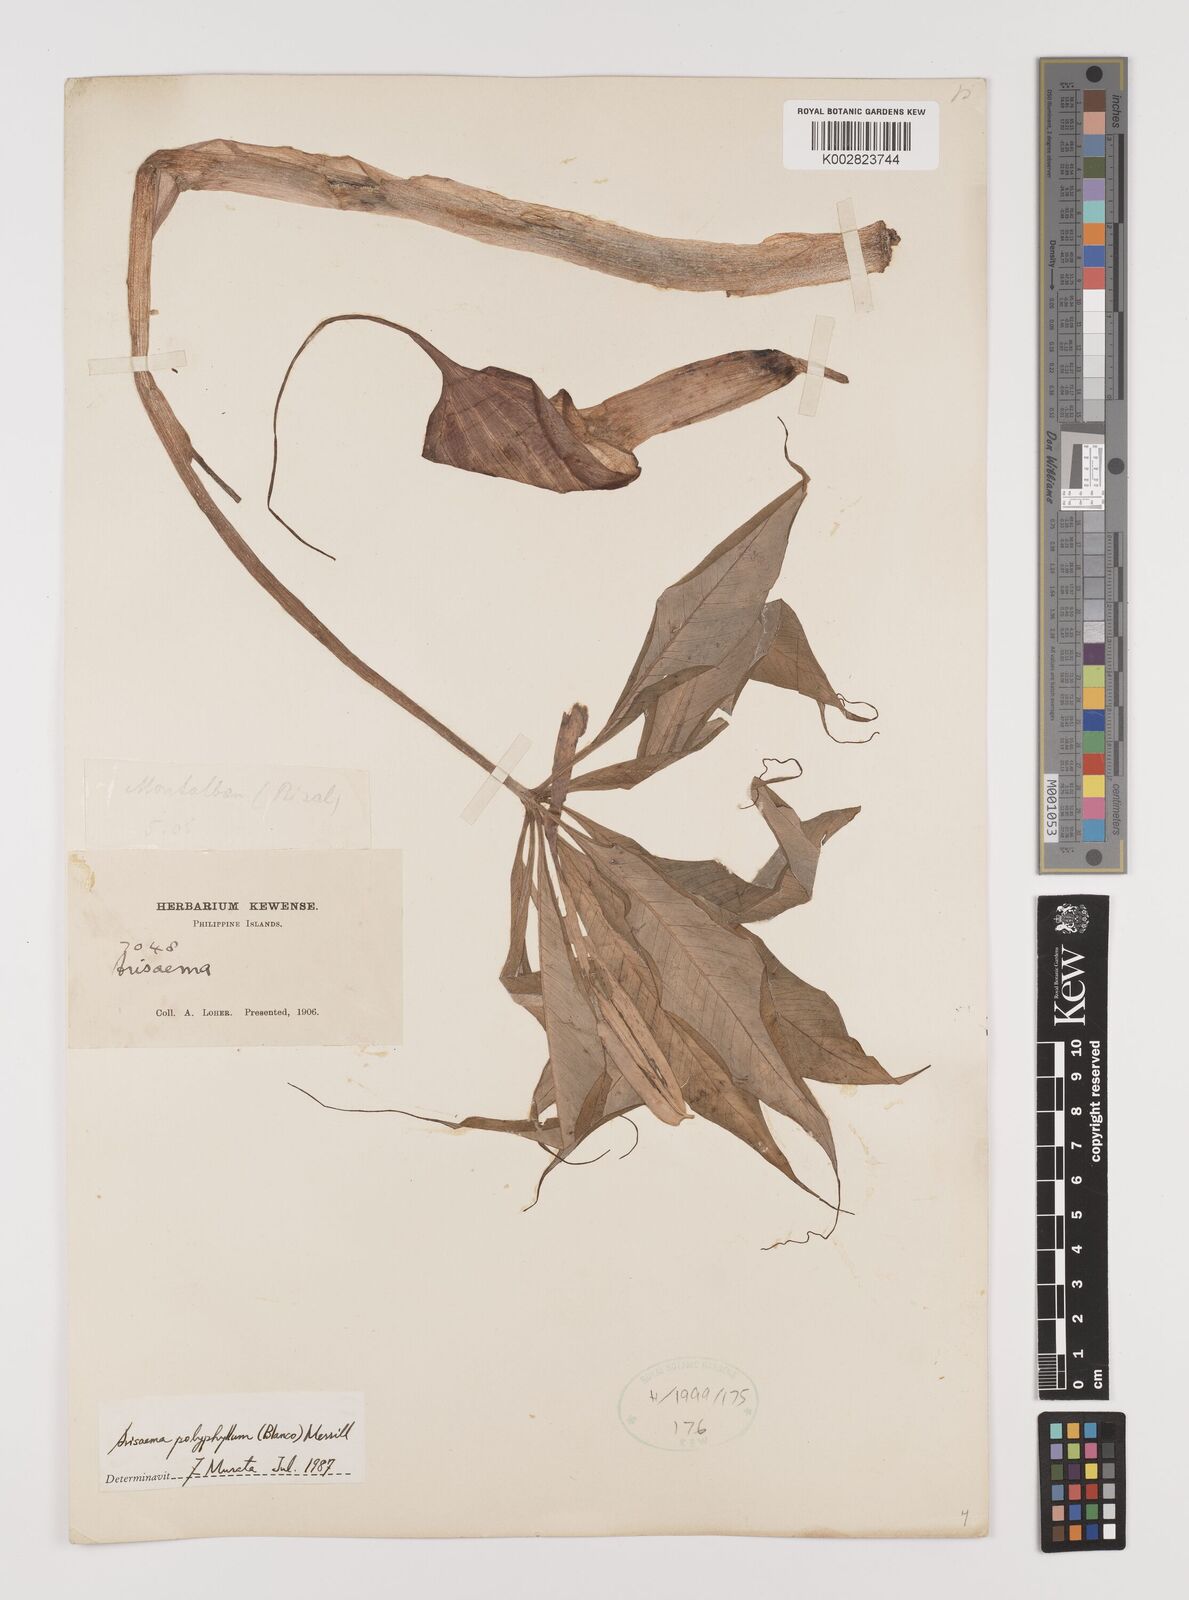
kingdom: Plantae
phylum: Tracheophyta
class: Liliopsida
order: Alismatales
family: Araceae
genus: Arisaema
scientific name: Arisaema polyphyllum
